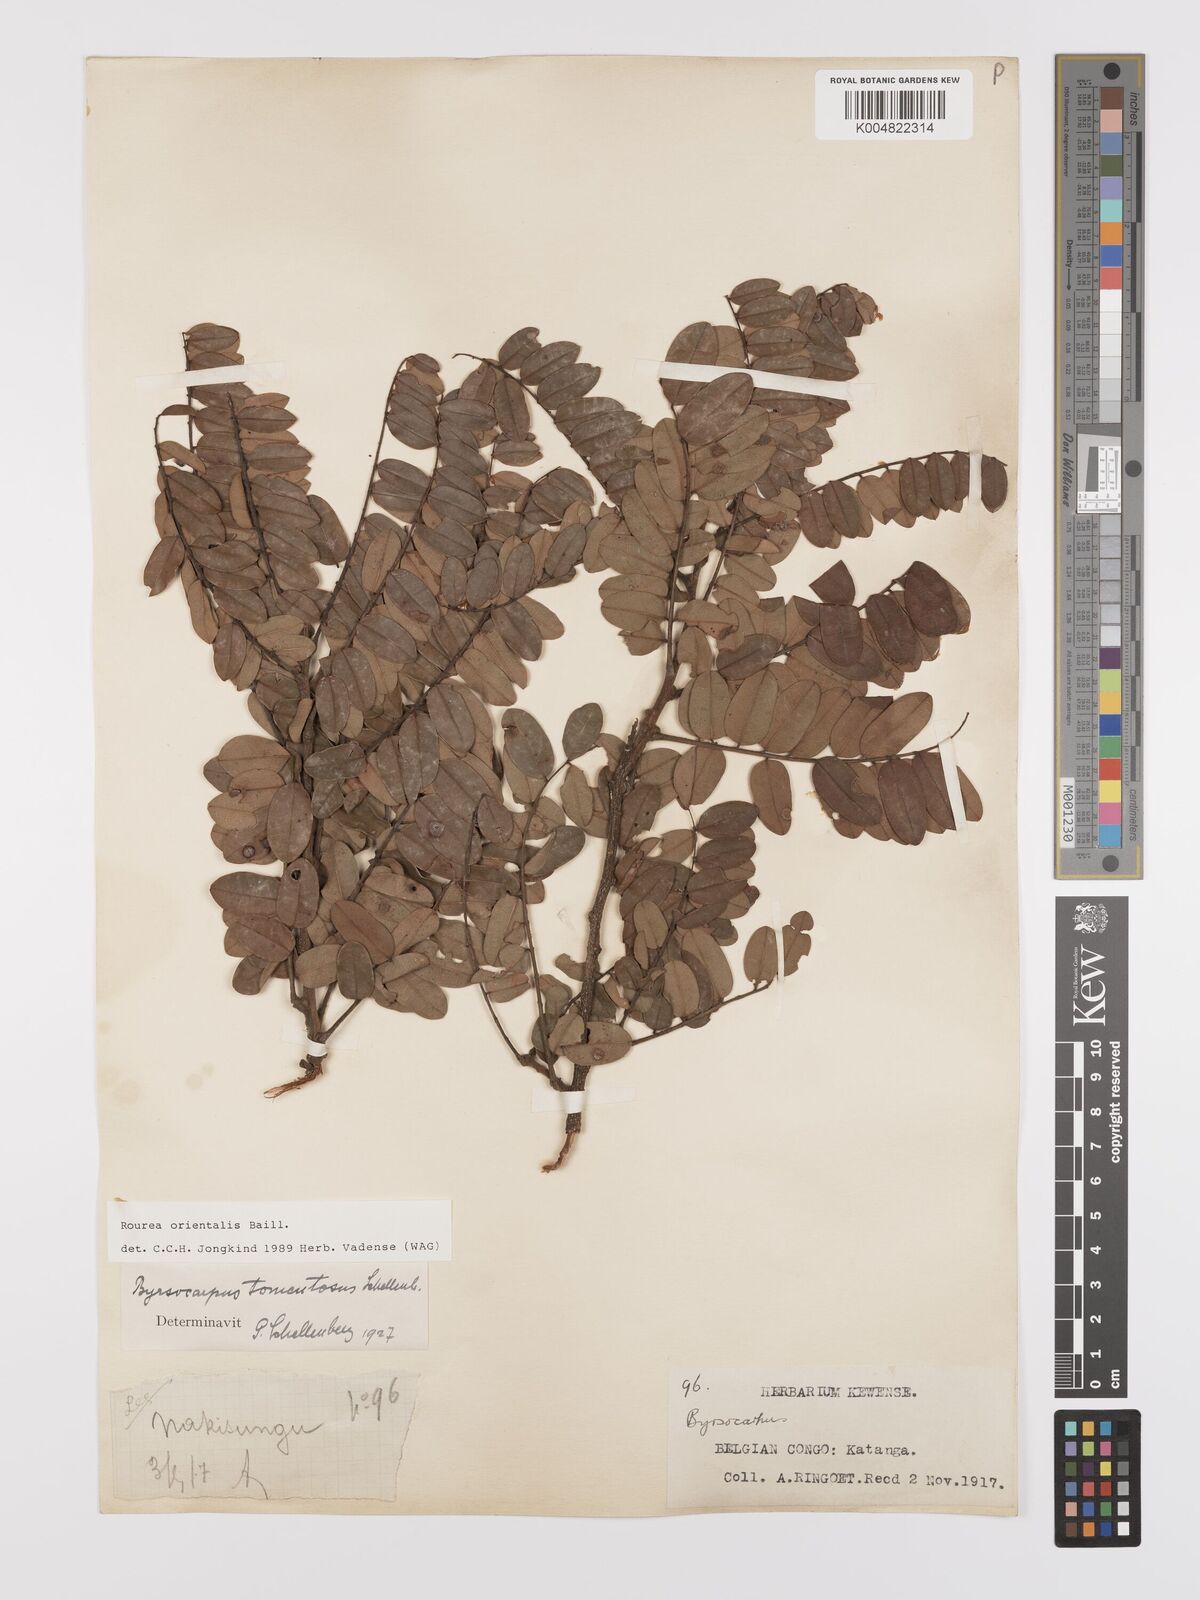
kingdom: Plantae
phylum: Tracheophyta
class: Magnoliopsida
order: Oxalidales
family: Connaraceae
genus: Rourea
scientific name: Rourea orientalis
